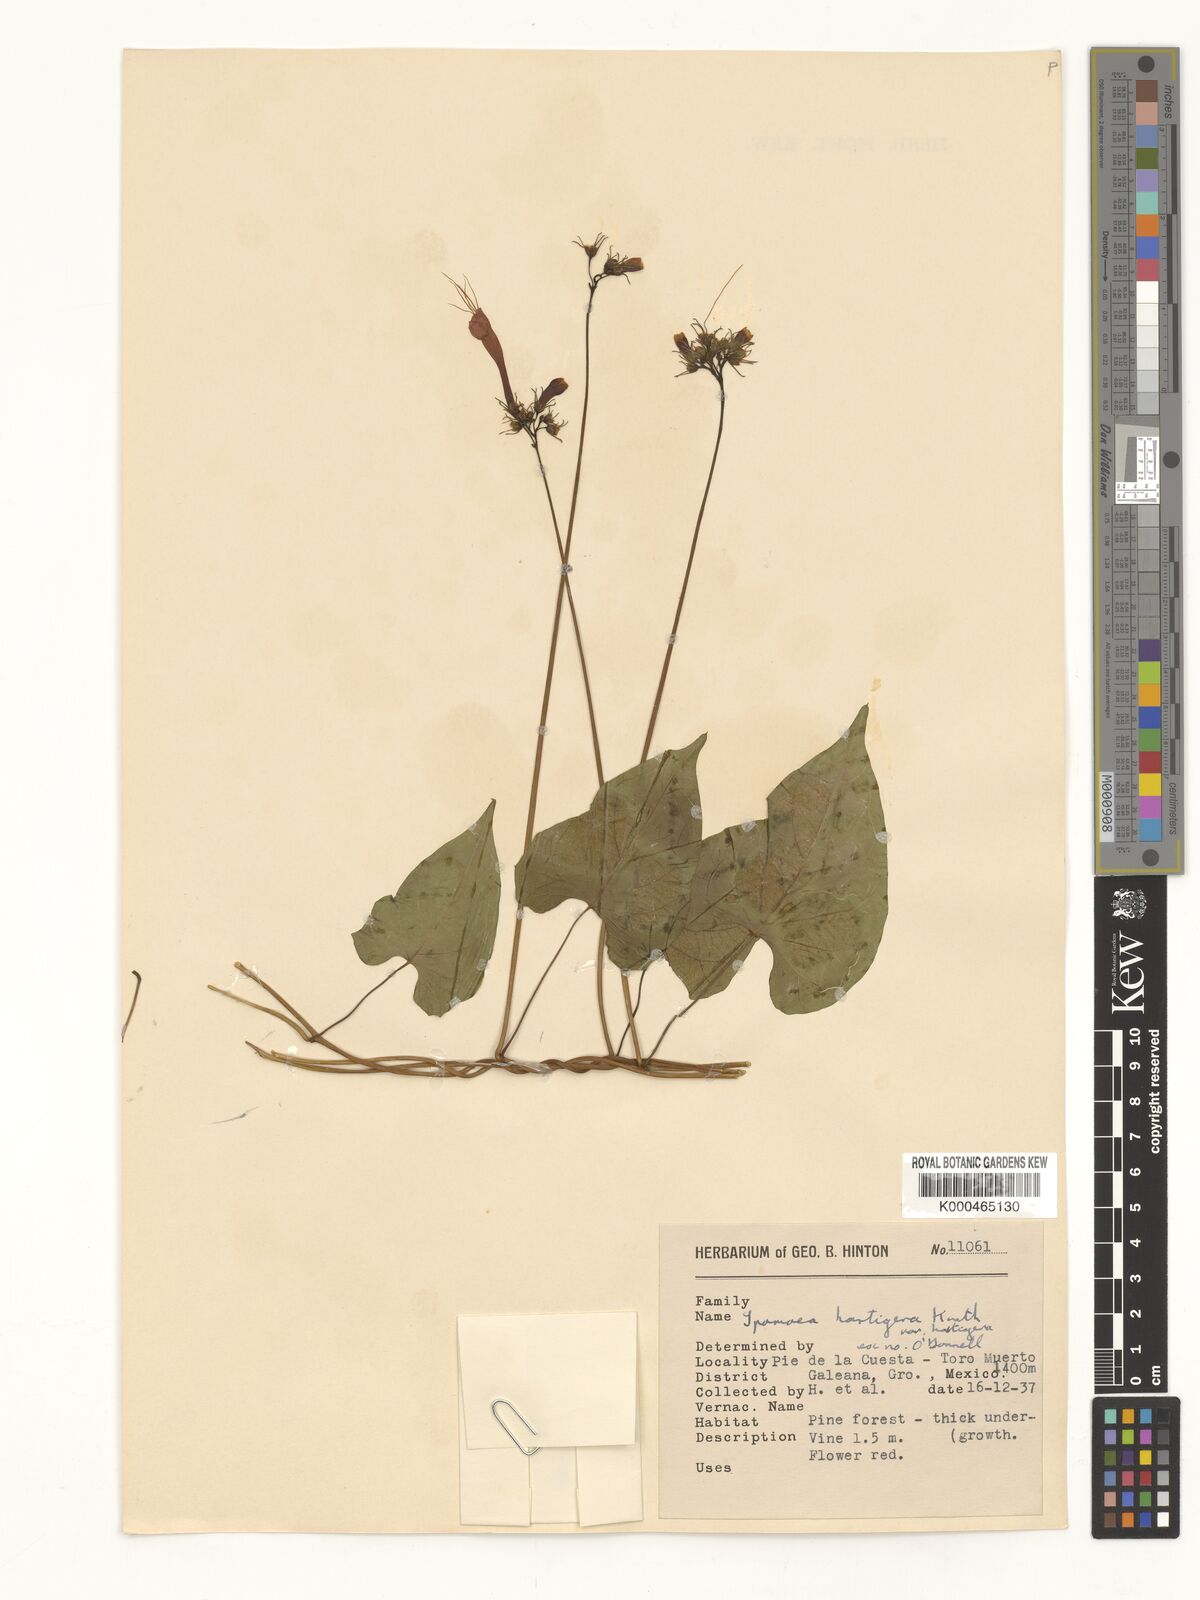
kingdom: Plantae
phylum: Tracheophyta
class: Magnoliopsida
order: Solanales
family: Convolvulaceae
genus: Ipomoea
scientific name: Ipomoea hastigera
